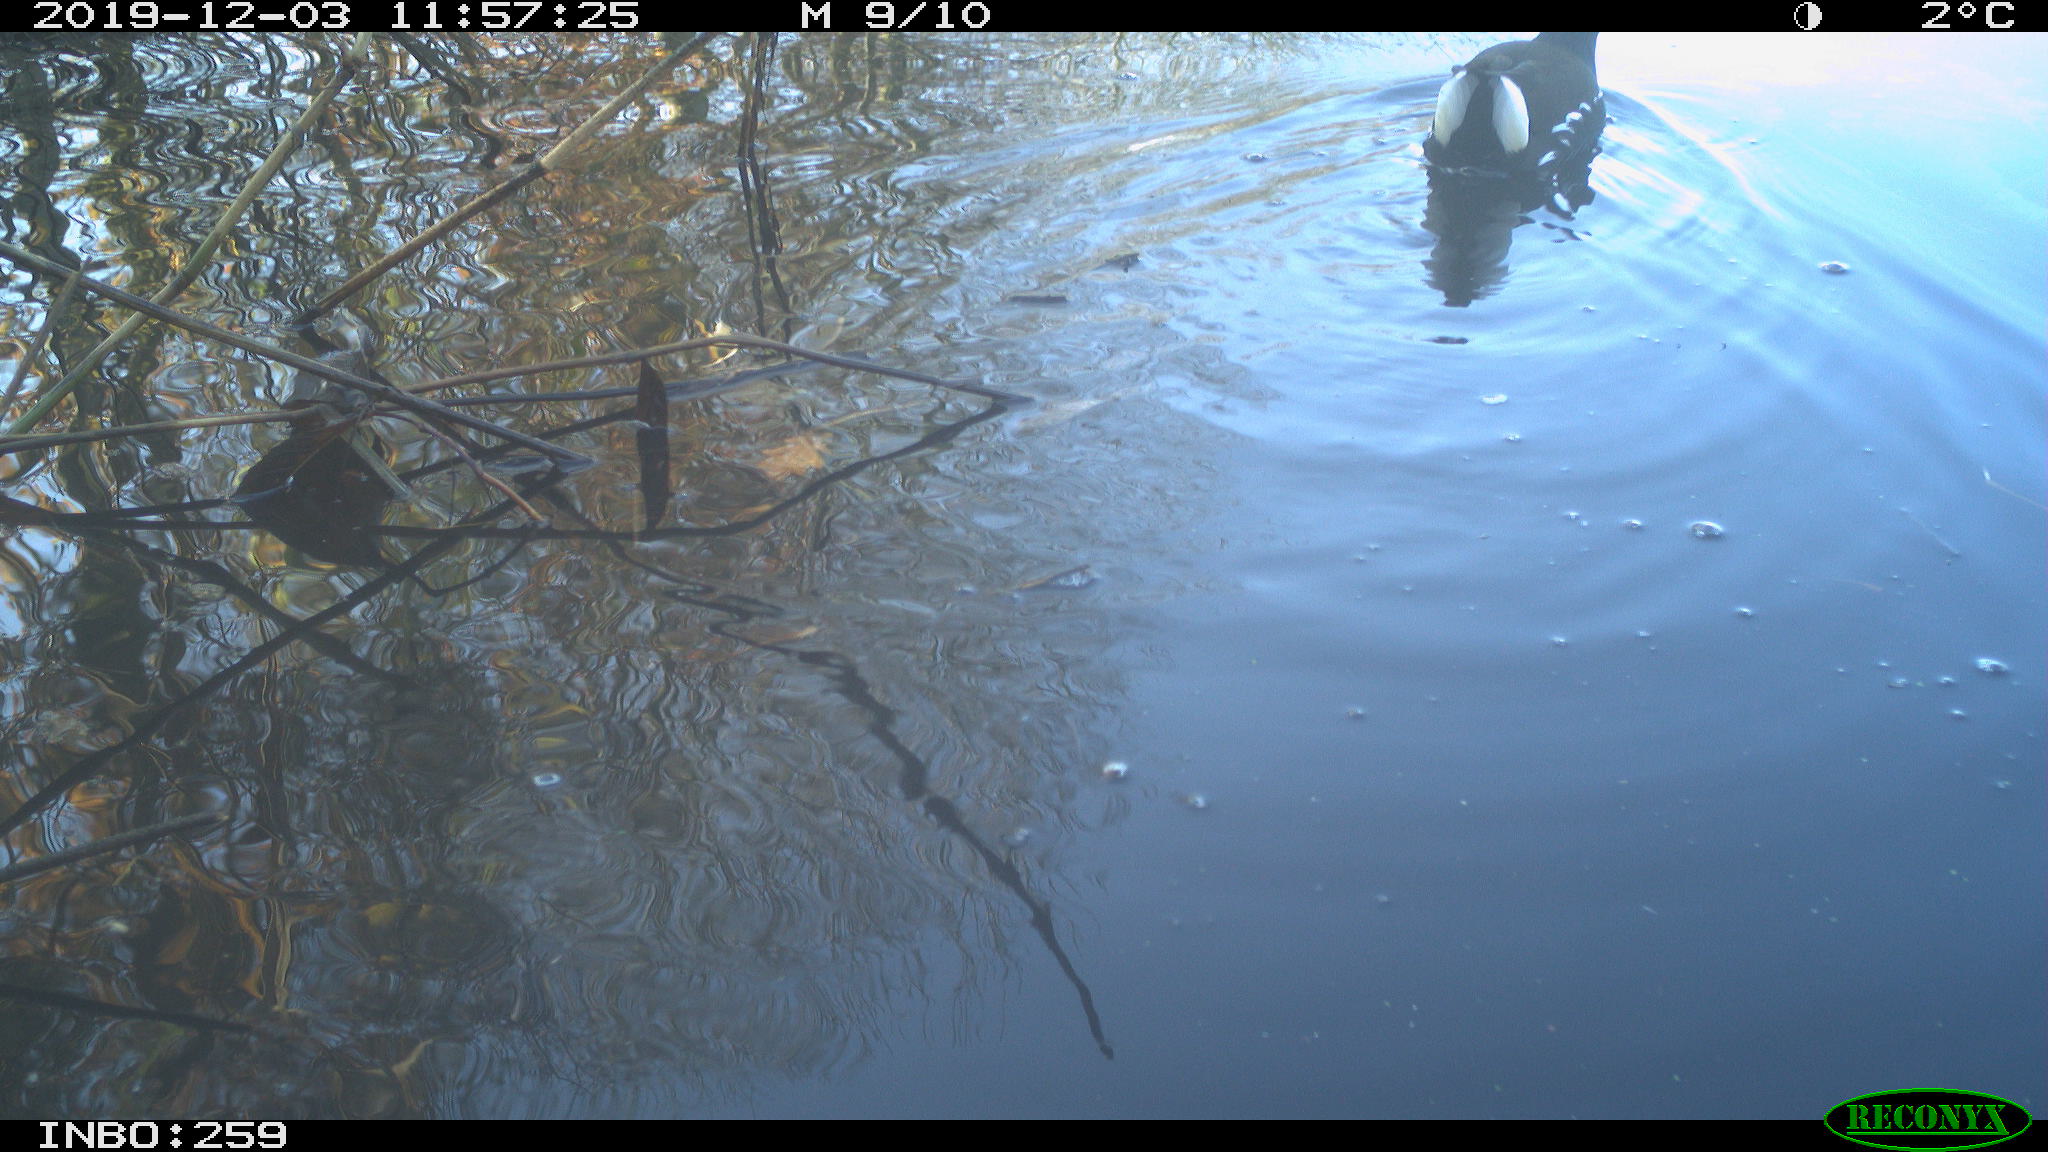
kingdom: Animalia
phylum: Chordata
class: Aves
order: Gruiformes
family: Rallidae
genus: Gallinula
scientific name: Gallinula chloropus
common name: Common moorhen
